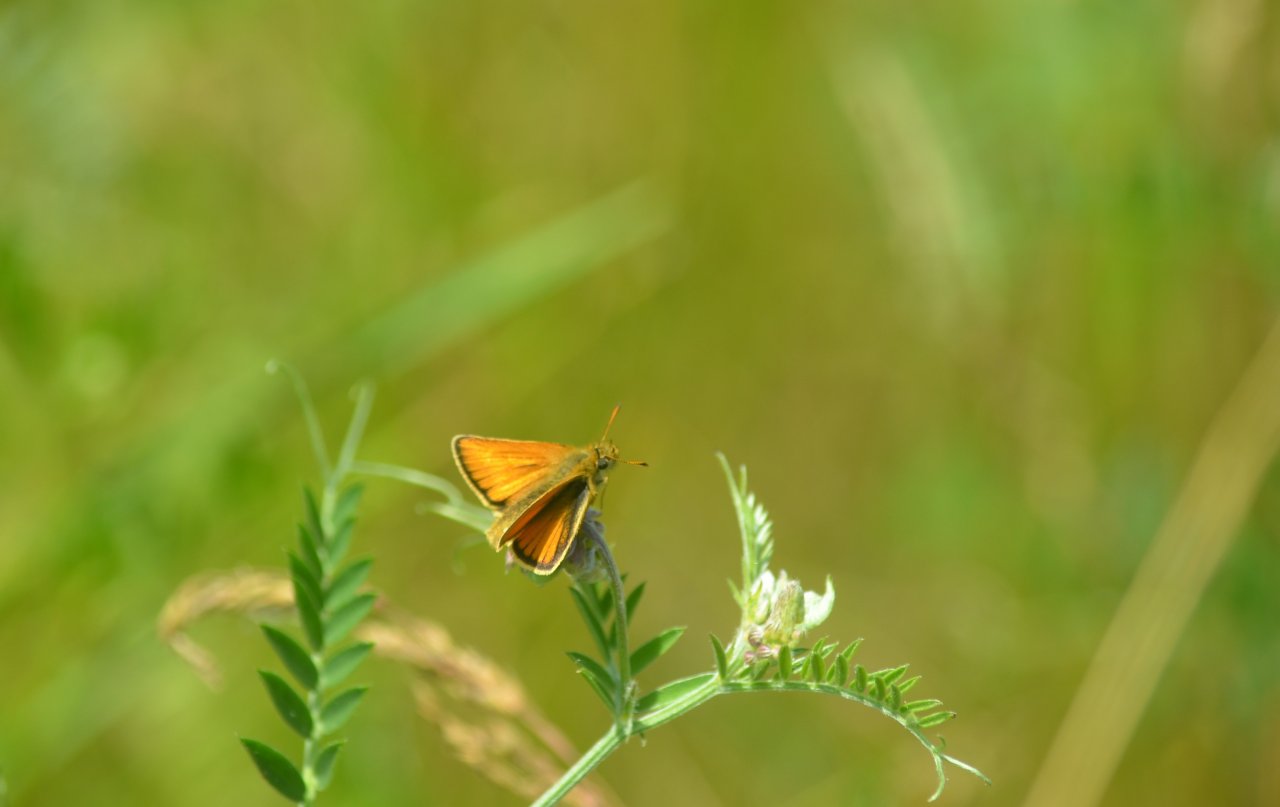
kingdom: Animalia
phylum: Arthropoda
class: Insecta
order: Lepidoptera
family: Hesperiidae
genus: Thymelicus
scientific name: Thymelicus lineola
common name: European Skipper
